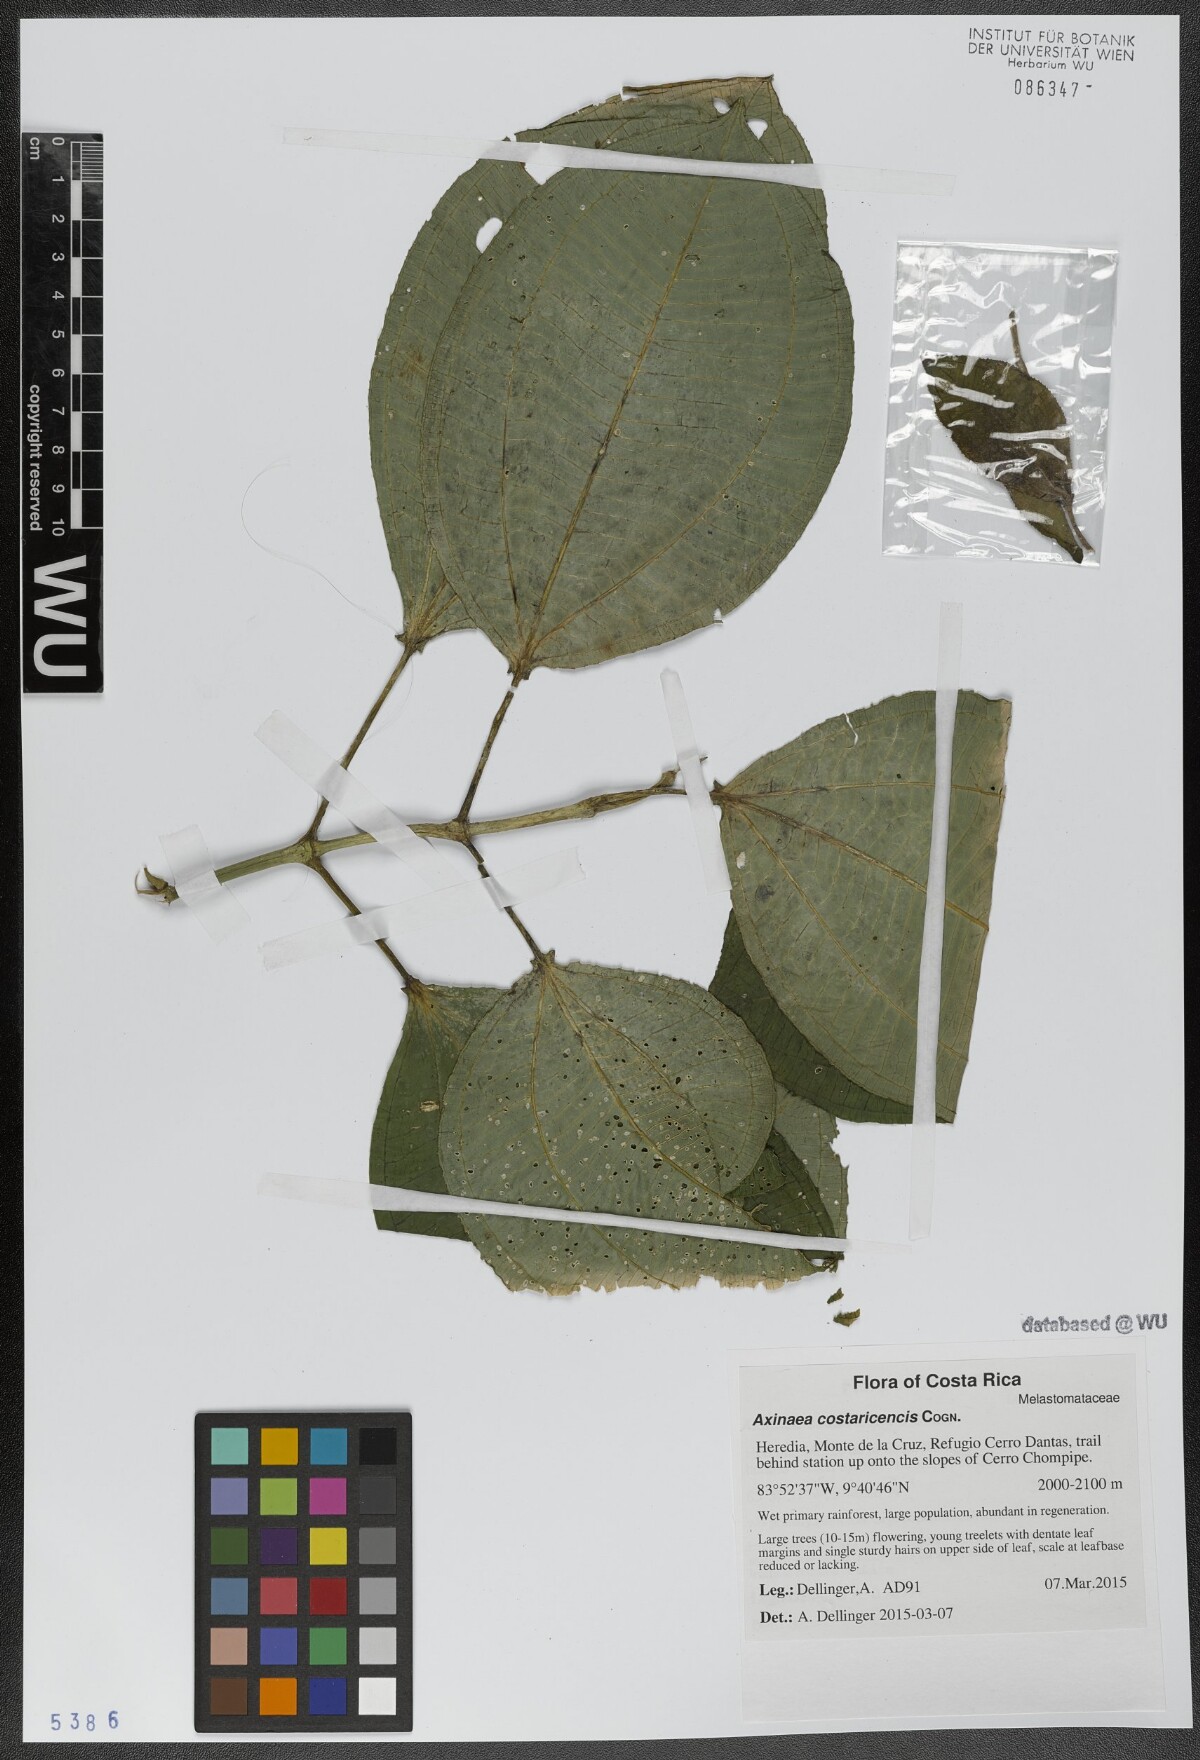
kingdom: Plantae
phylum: Tracheophyta
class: Magnoliopsida
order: Myrtales
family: Melastomataceae
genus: Axinaea
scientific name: Axinaea costaricencis
